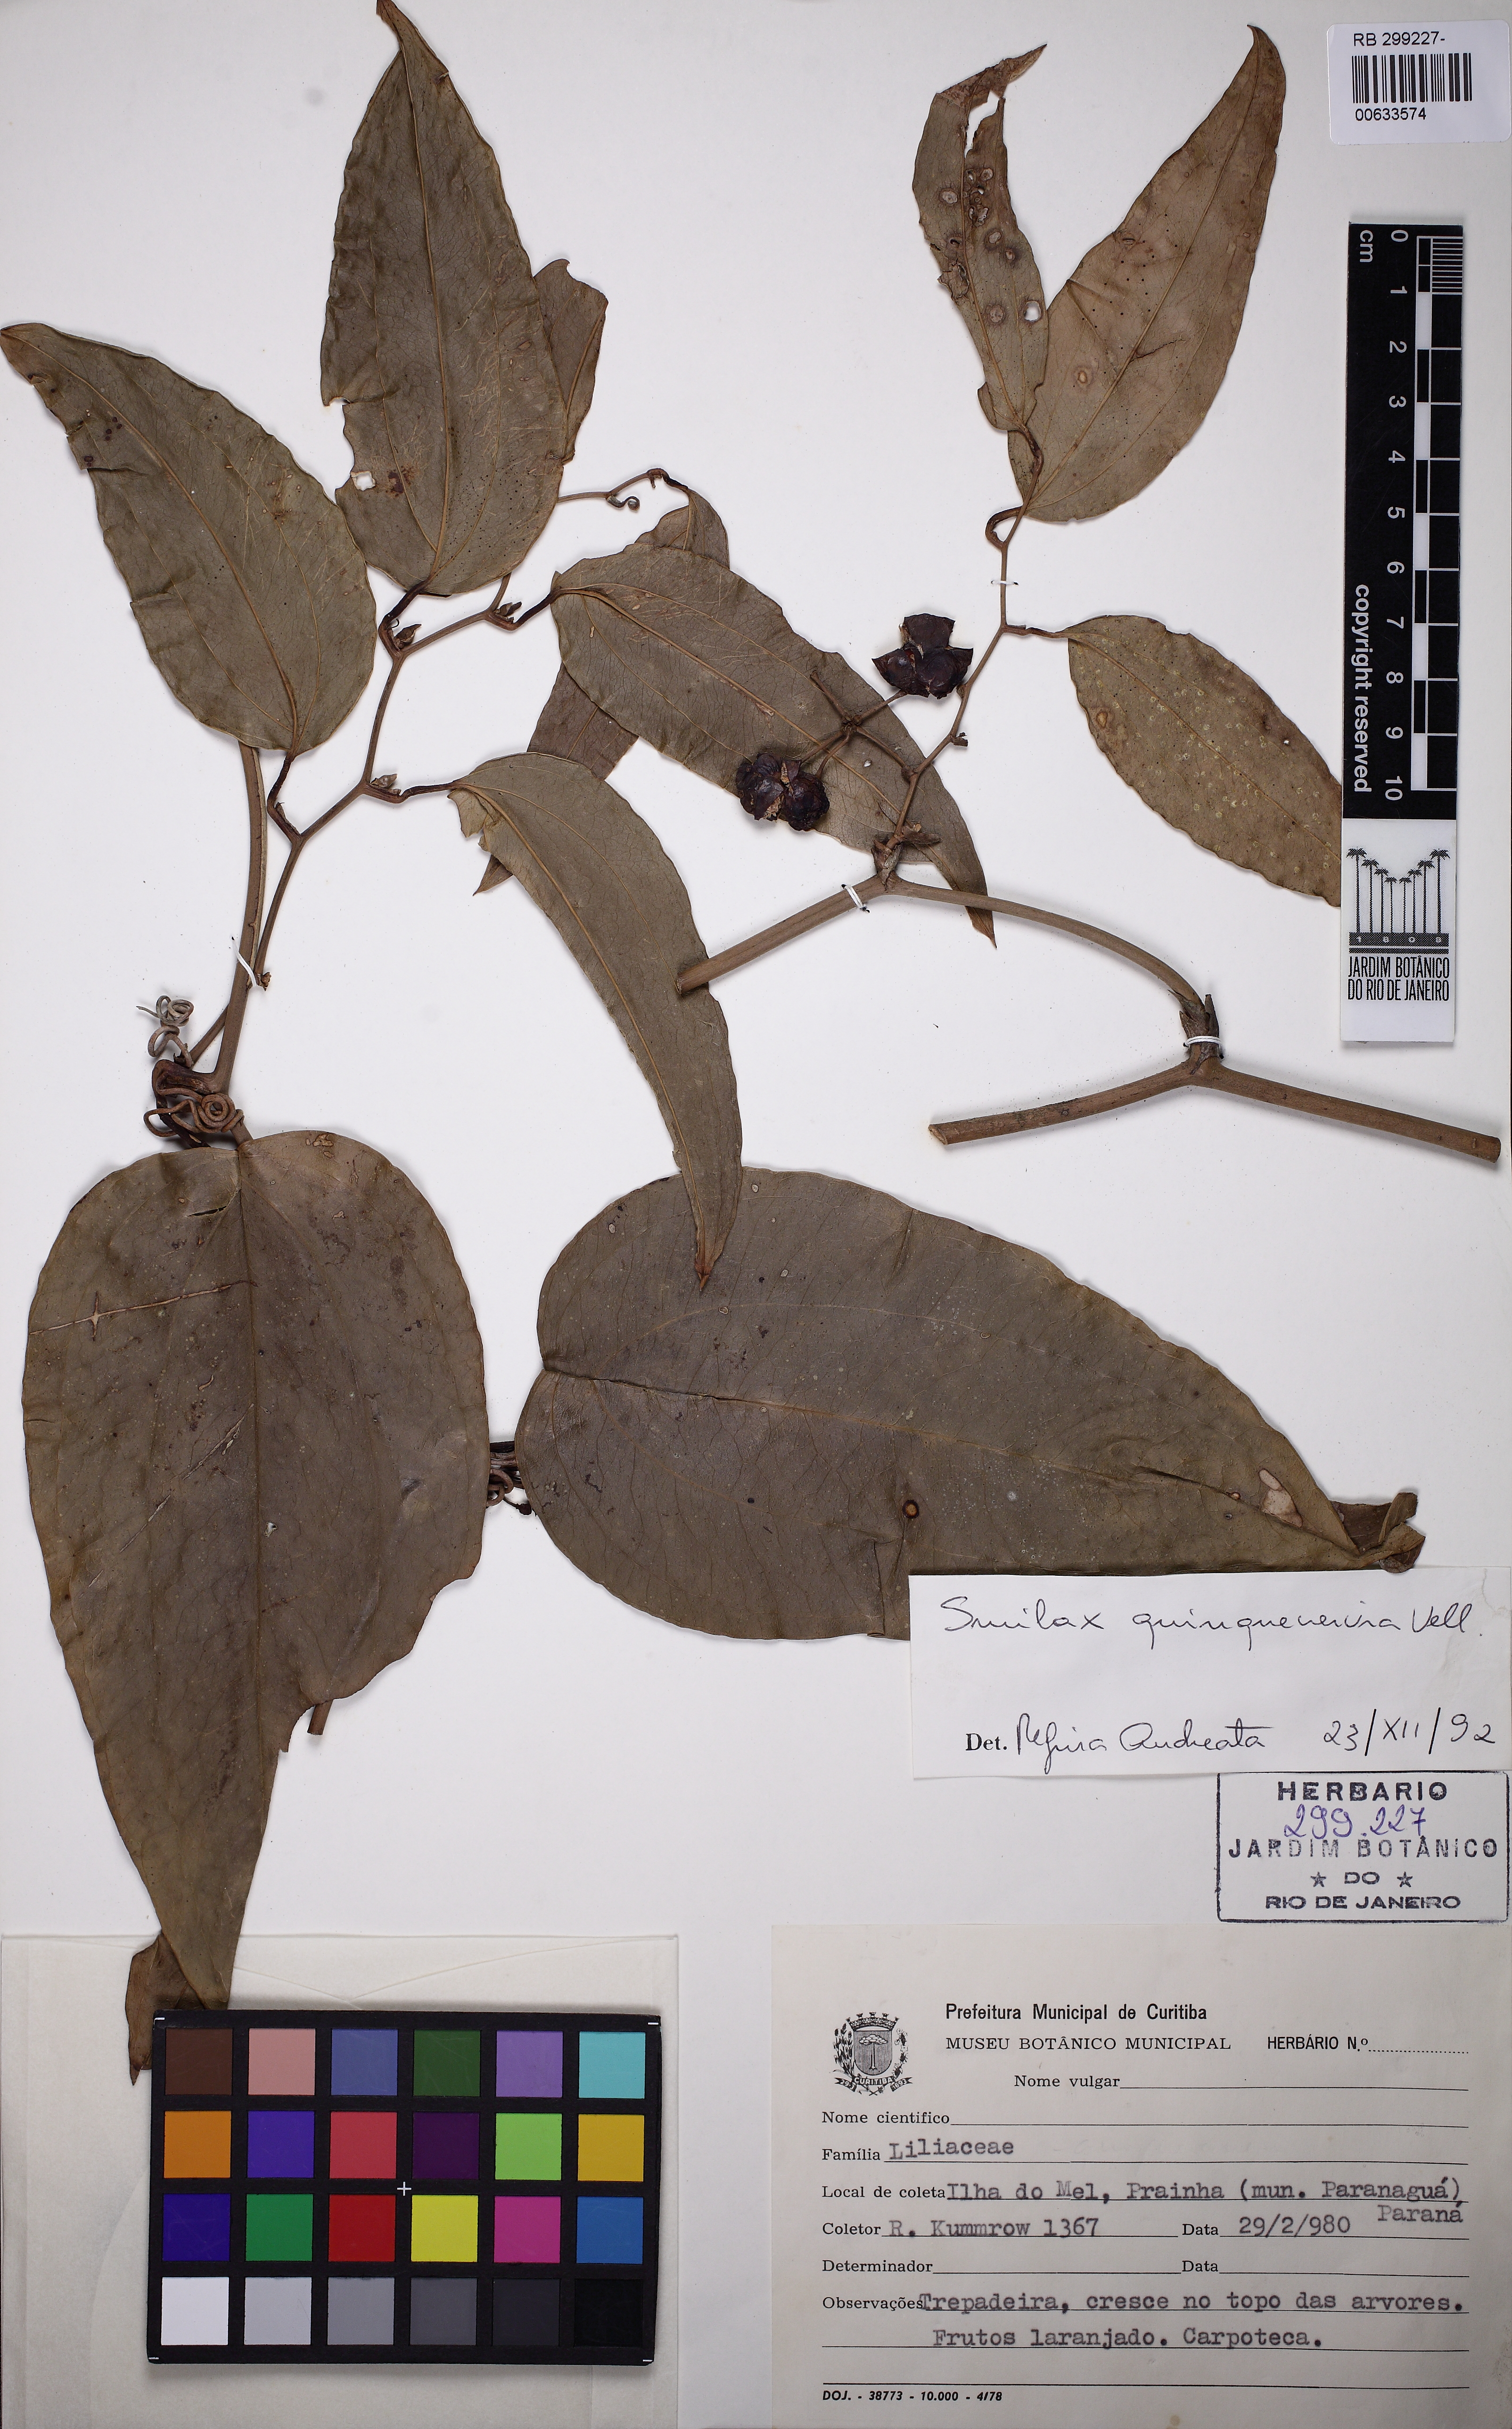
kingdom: Plantae
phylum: Tracheophyta
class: Liliopsida
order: Liliales
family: Smilacaceae
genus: Smilax
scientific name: Smilax quinquenervia
